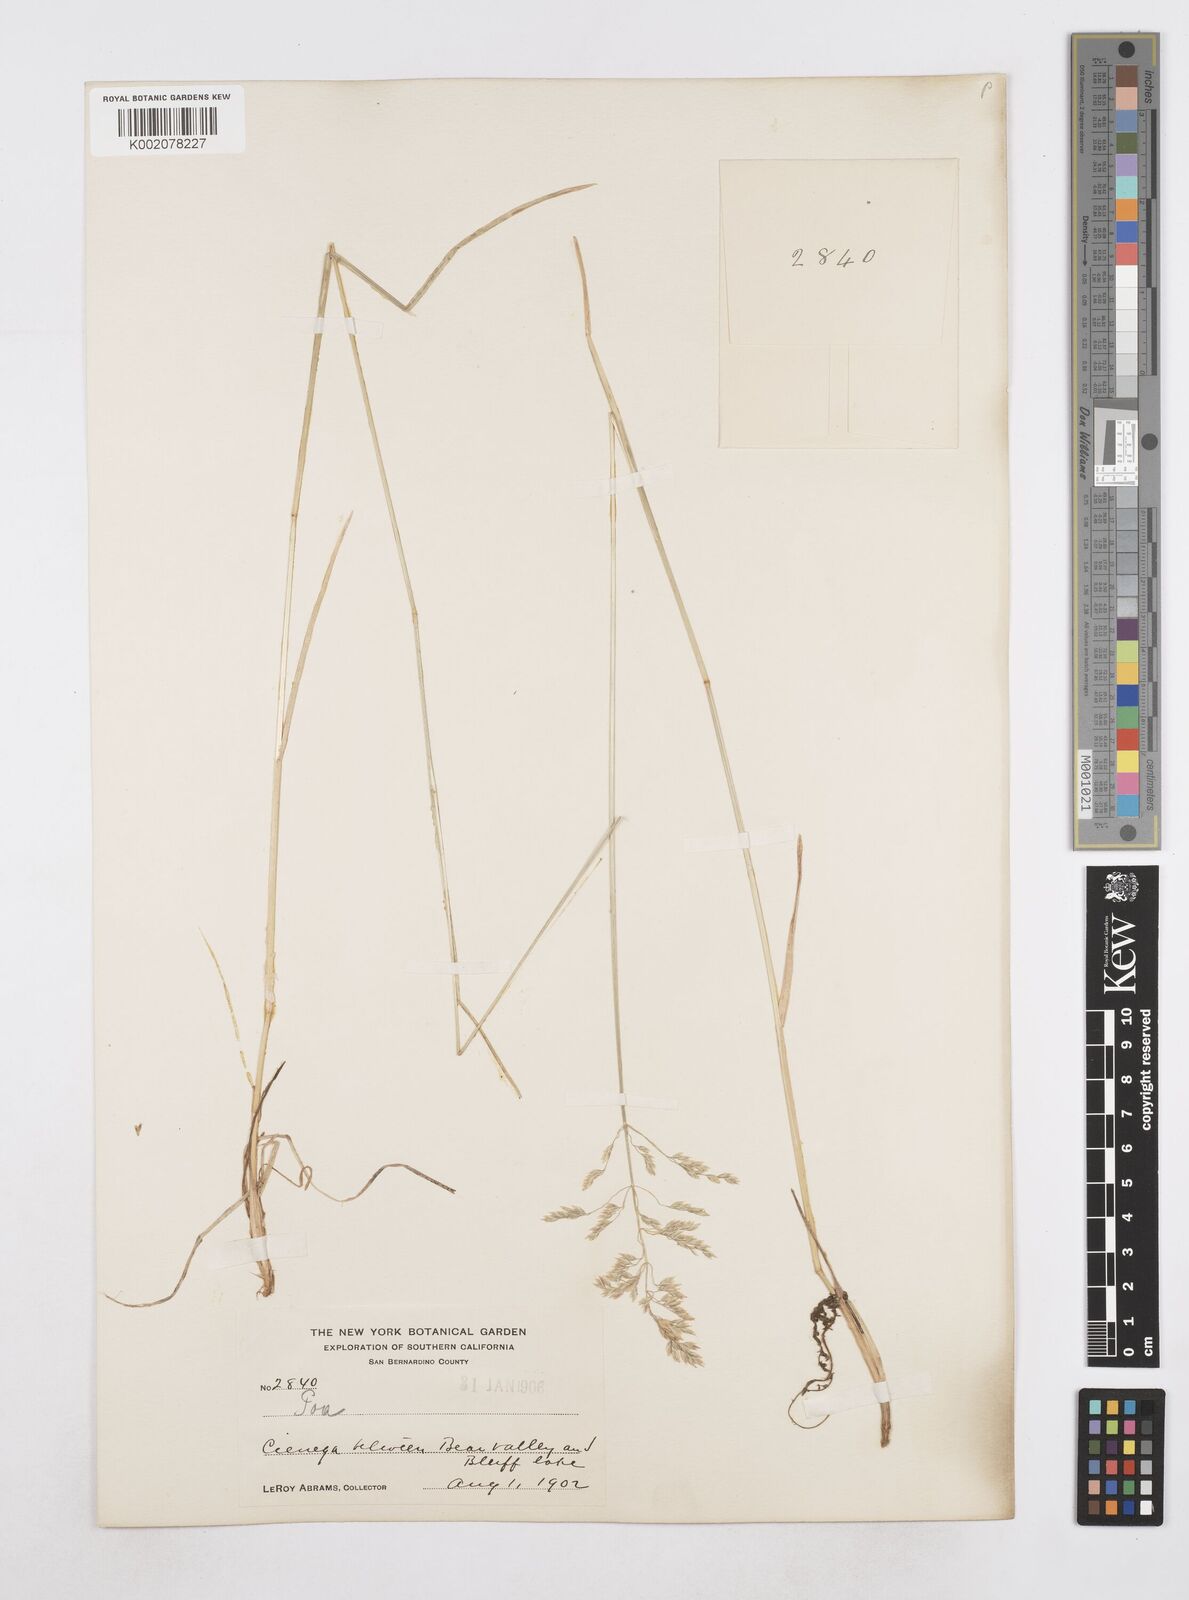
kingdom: Plantae
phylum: Tracheophyta
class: Liliopsida
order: Poales
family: Poaceae
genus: Poa
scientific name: Poa
